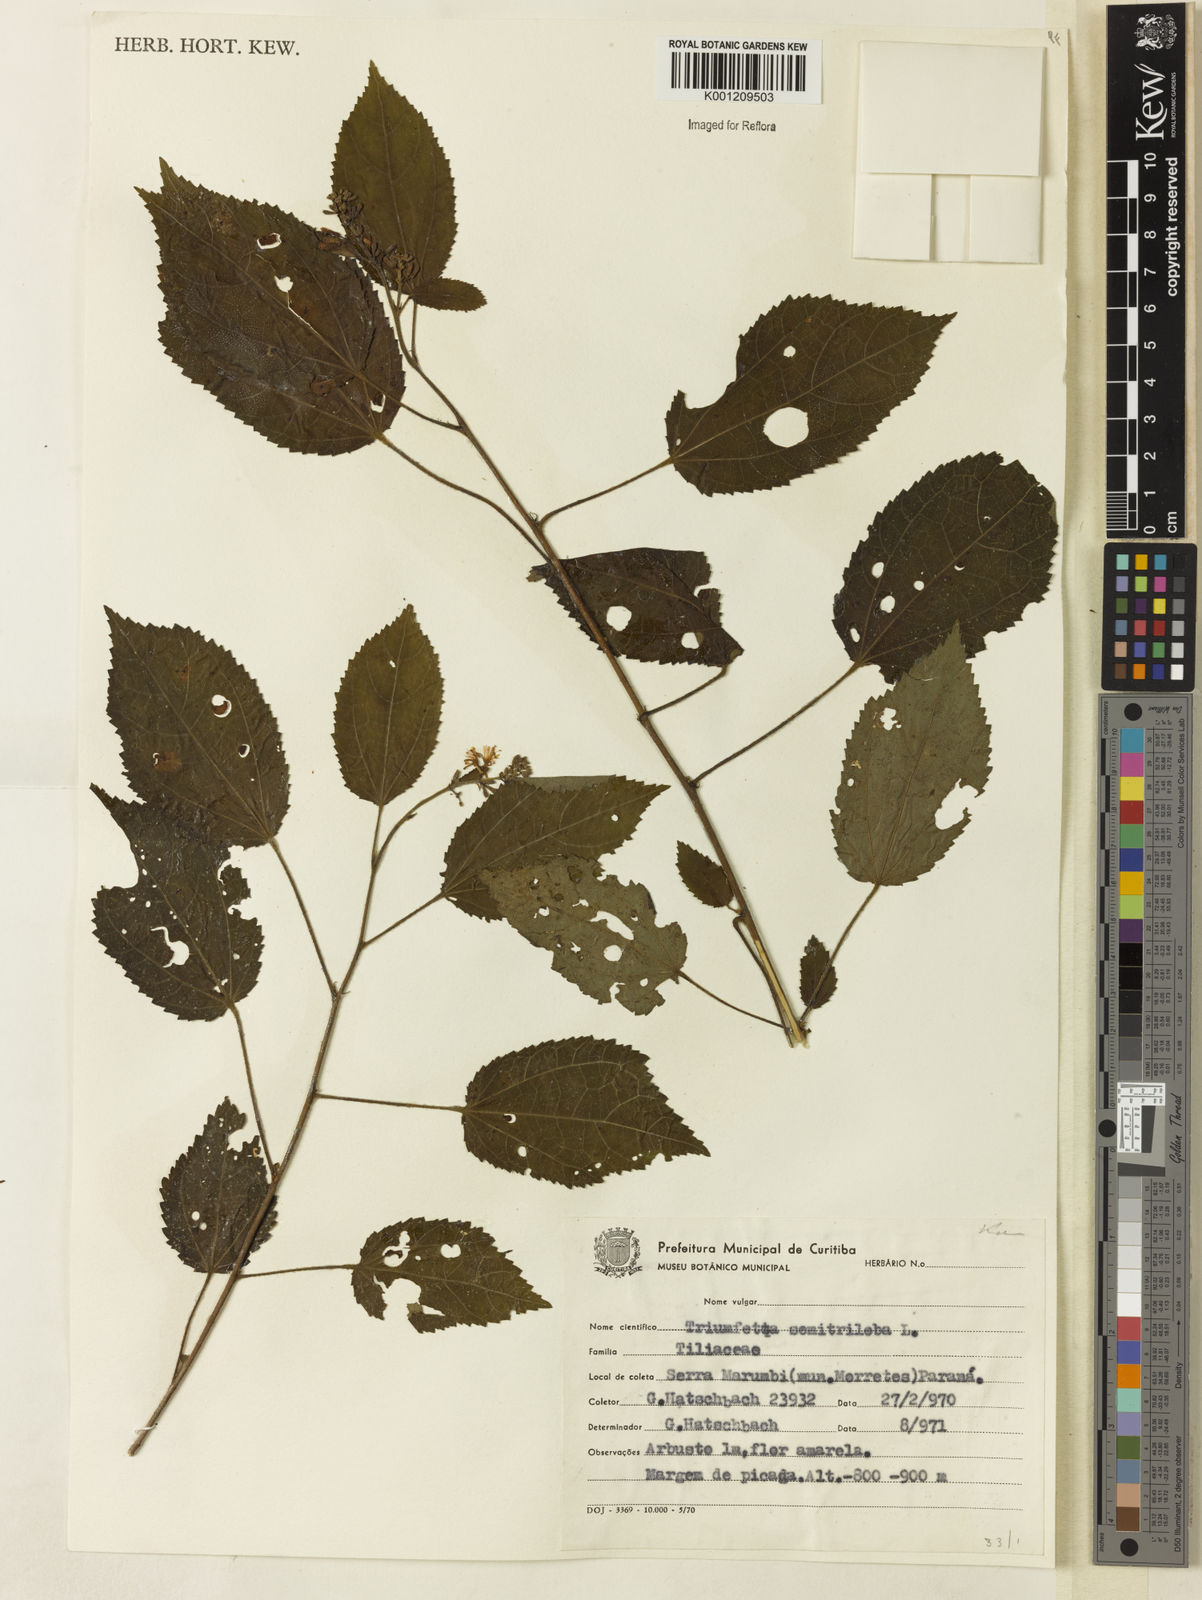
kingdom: Plantae
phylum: Tracheophyta
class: Magnoliopsida
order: Malvales
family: Malvaceae
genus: Triumfetta
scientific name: Triumfetta semitriloba
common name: Sacramento burbark
